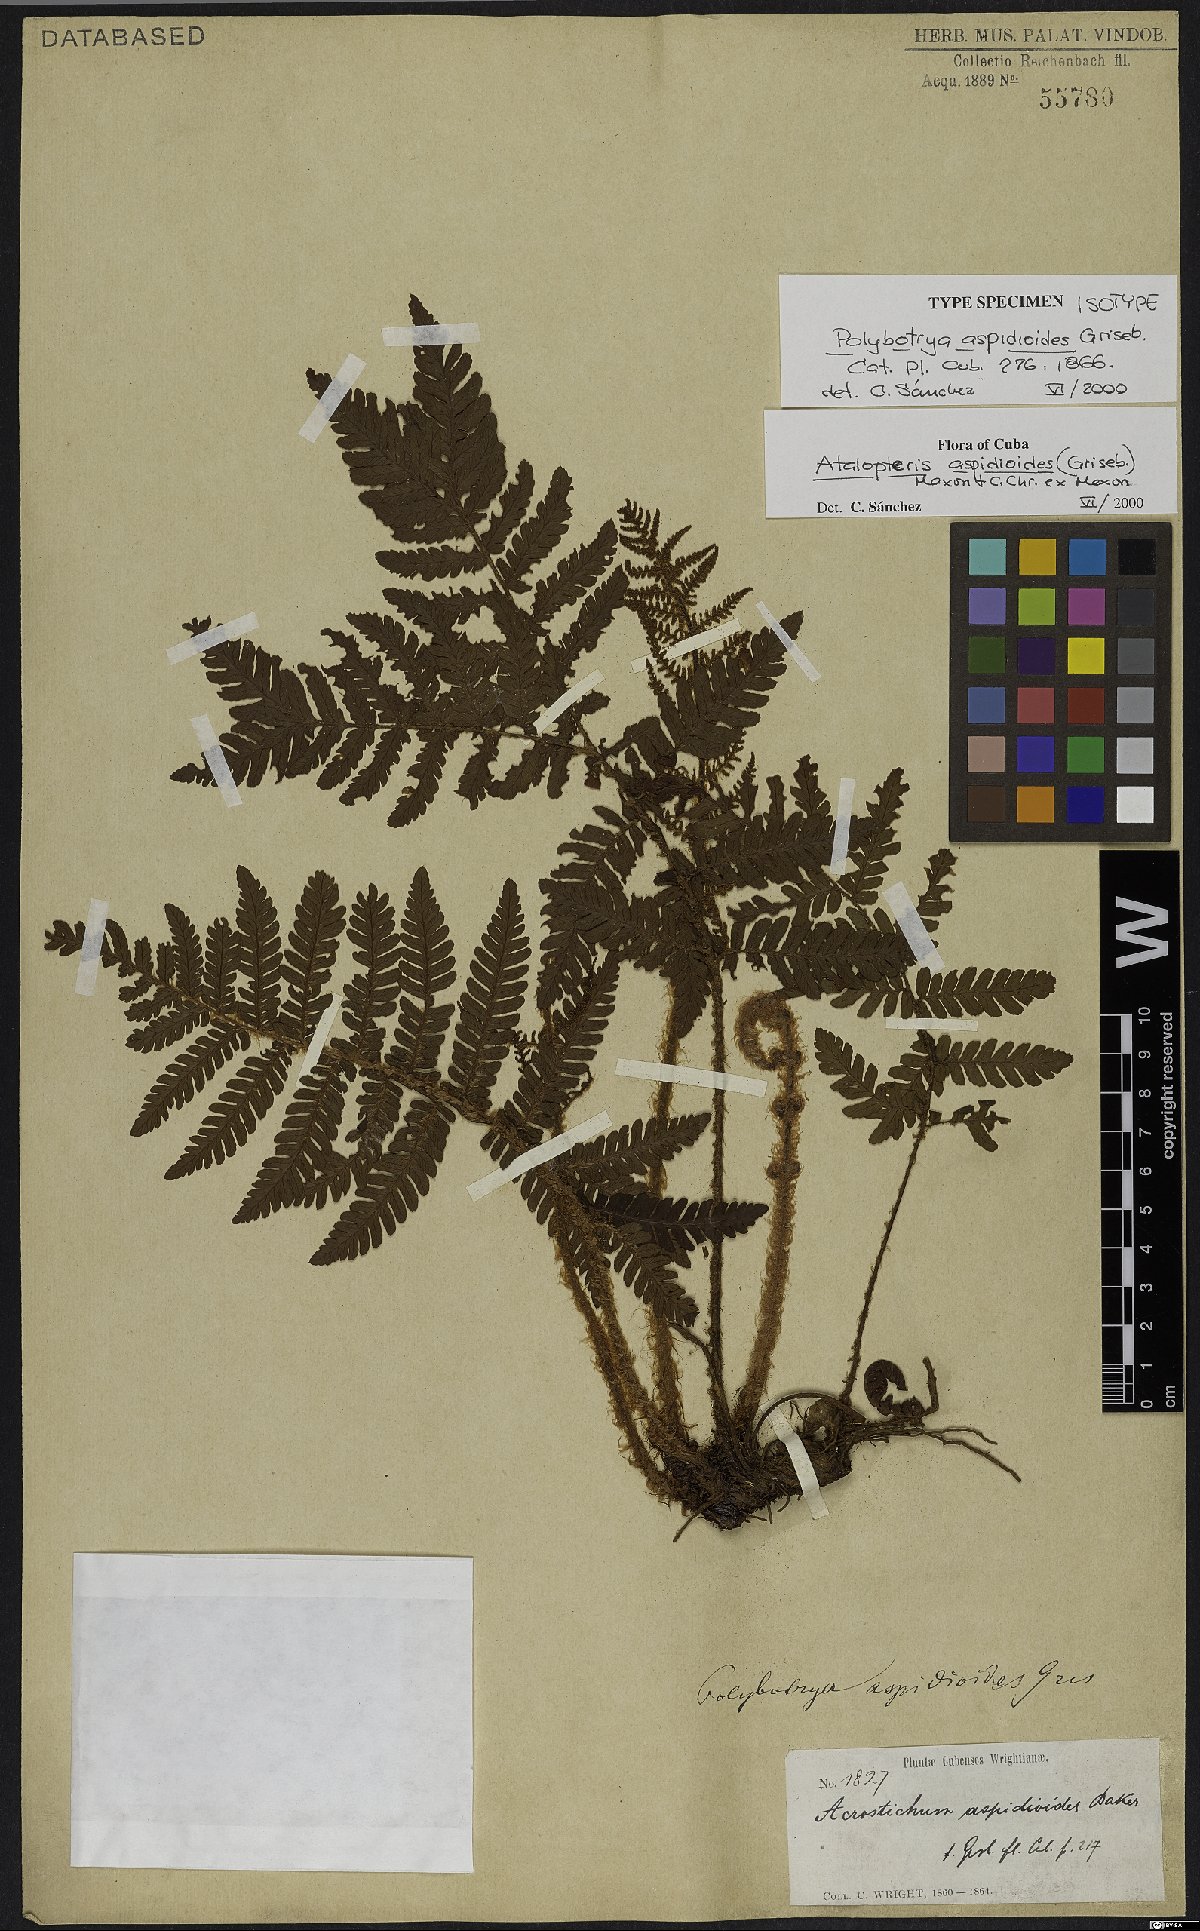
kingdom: Plantae
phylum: Tracheophyta
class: Polypodiopsida
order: Polypodiales
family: Dryopteridaceae
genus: Atalopteris
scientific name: Atalopteris aspidioides
